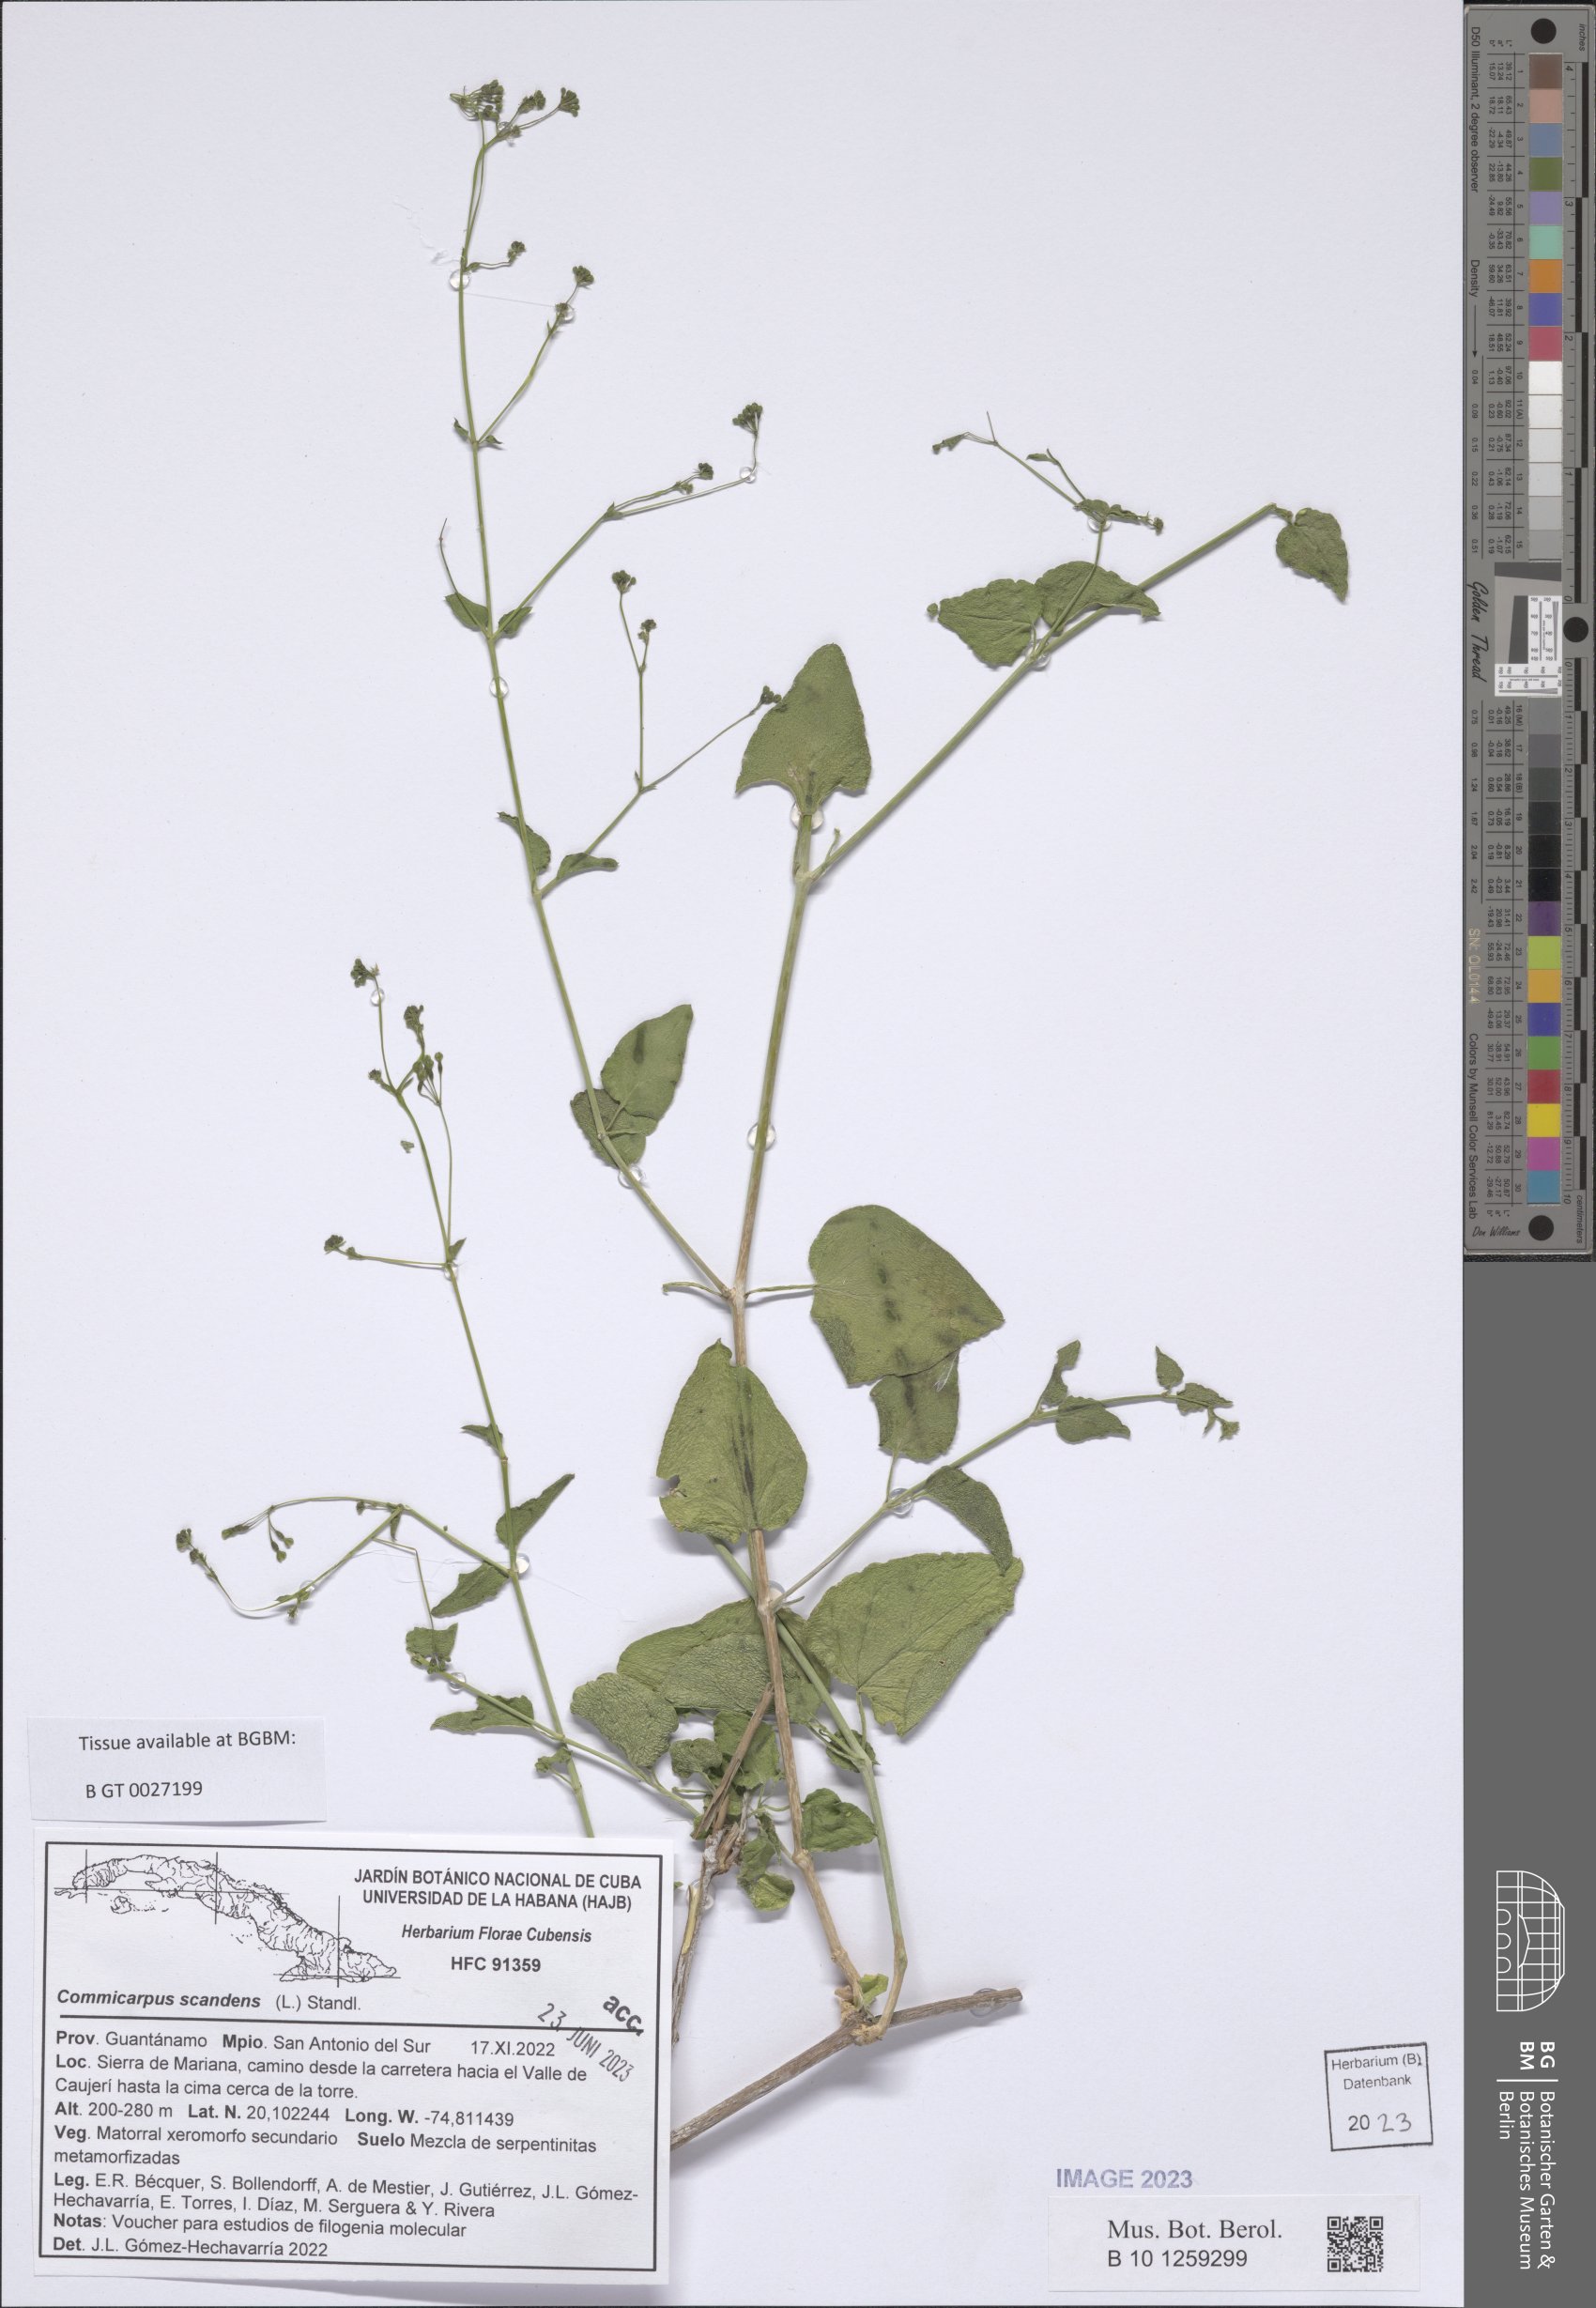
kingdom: Plantae
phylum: Tracheophyta
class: Magnoliopsida
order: Caryophyllales
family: Nyctaginaceae
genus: Commicarpus
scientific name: Commicarpus scandens
